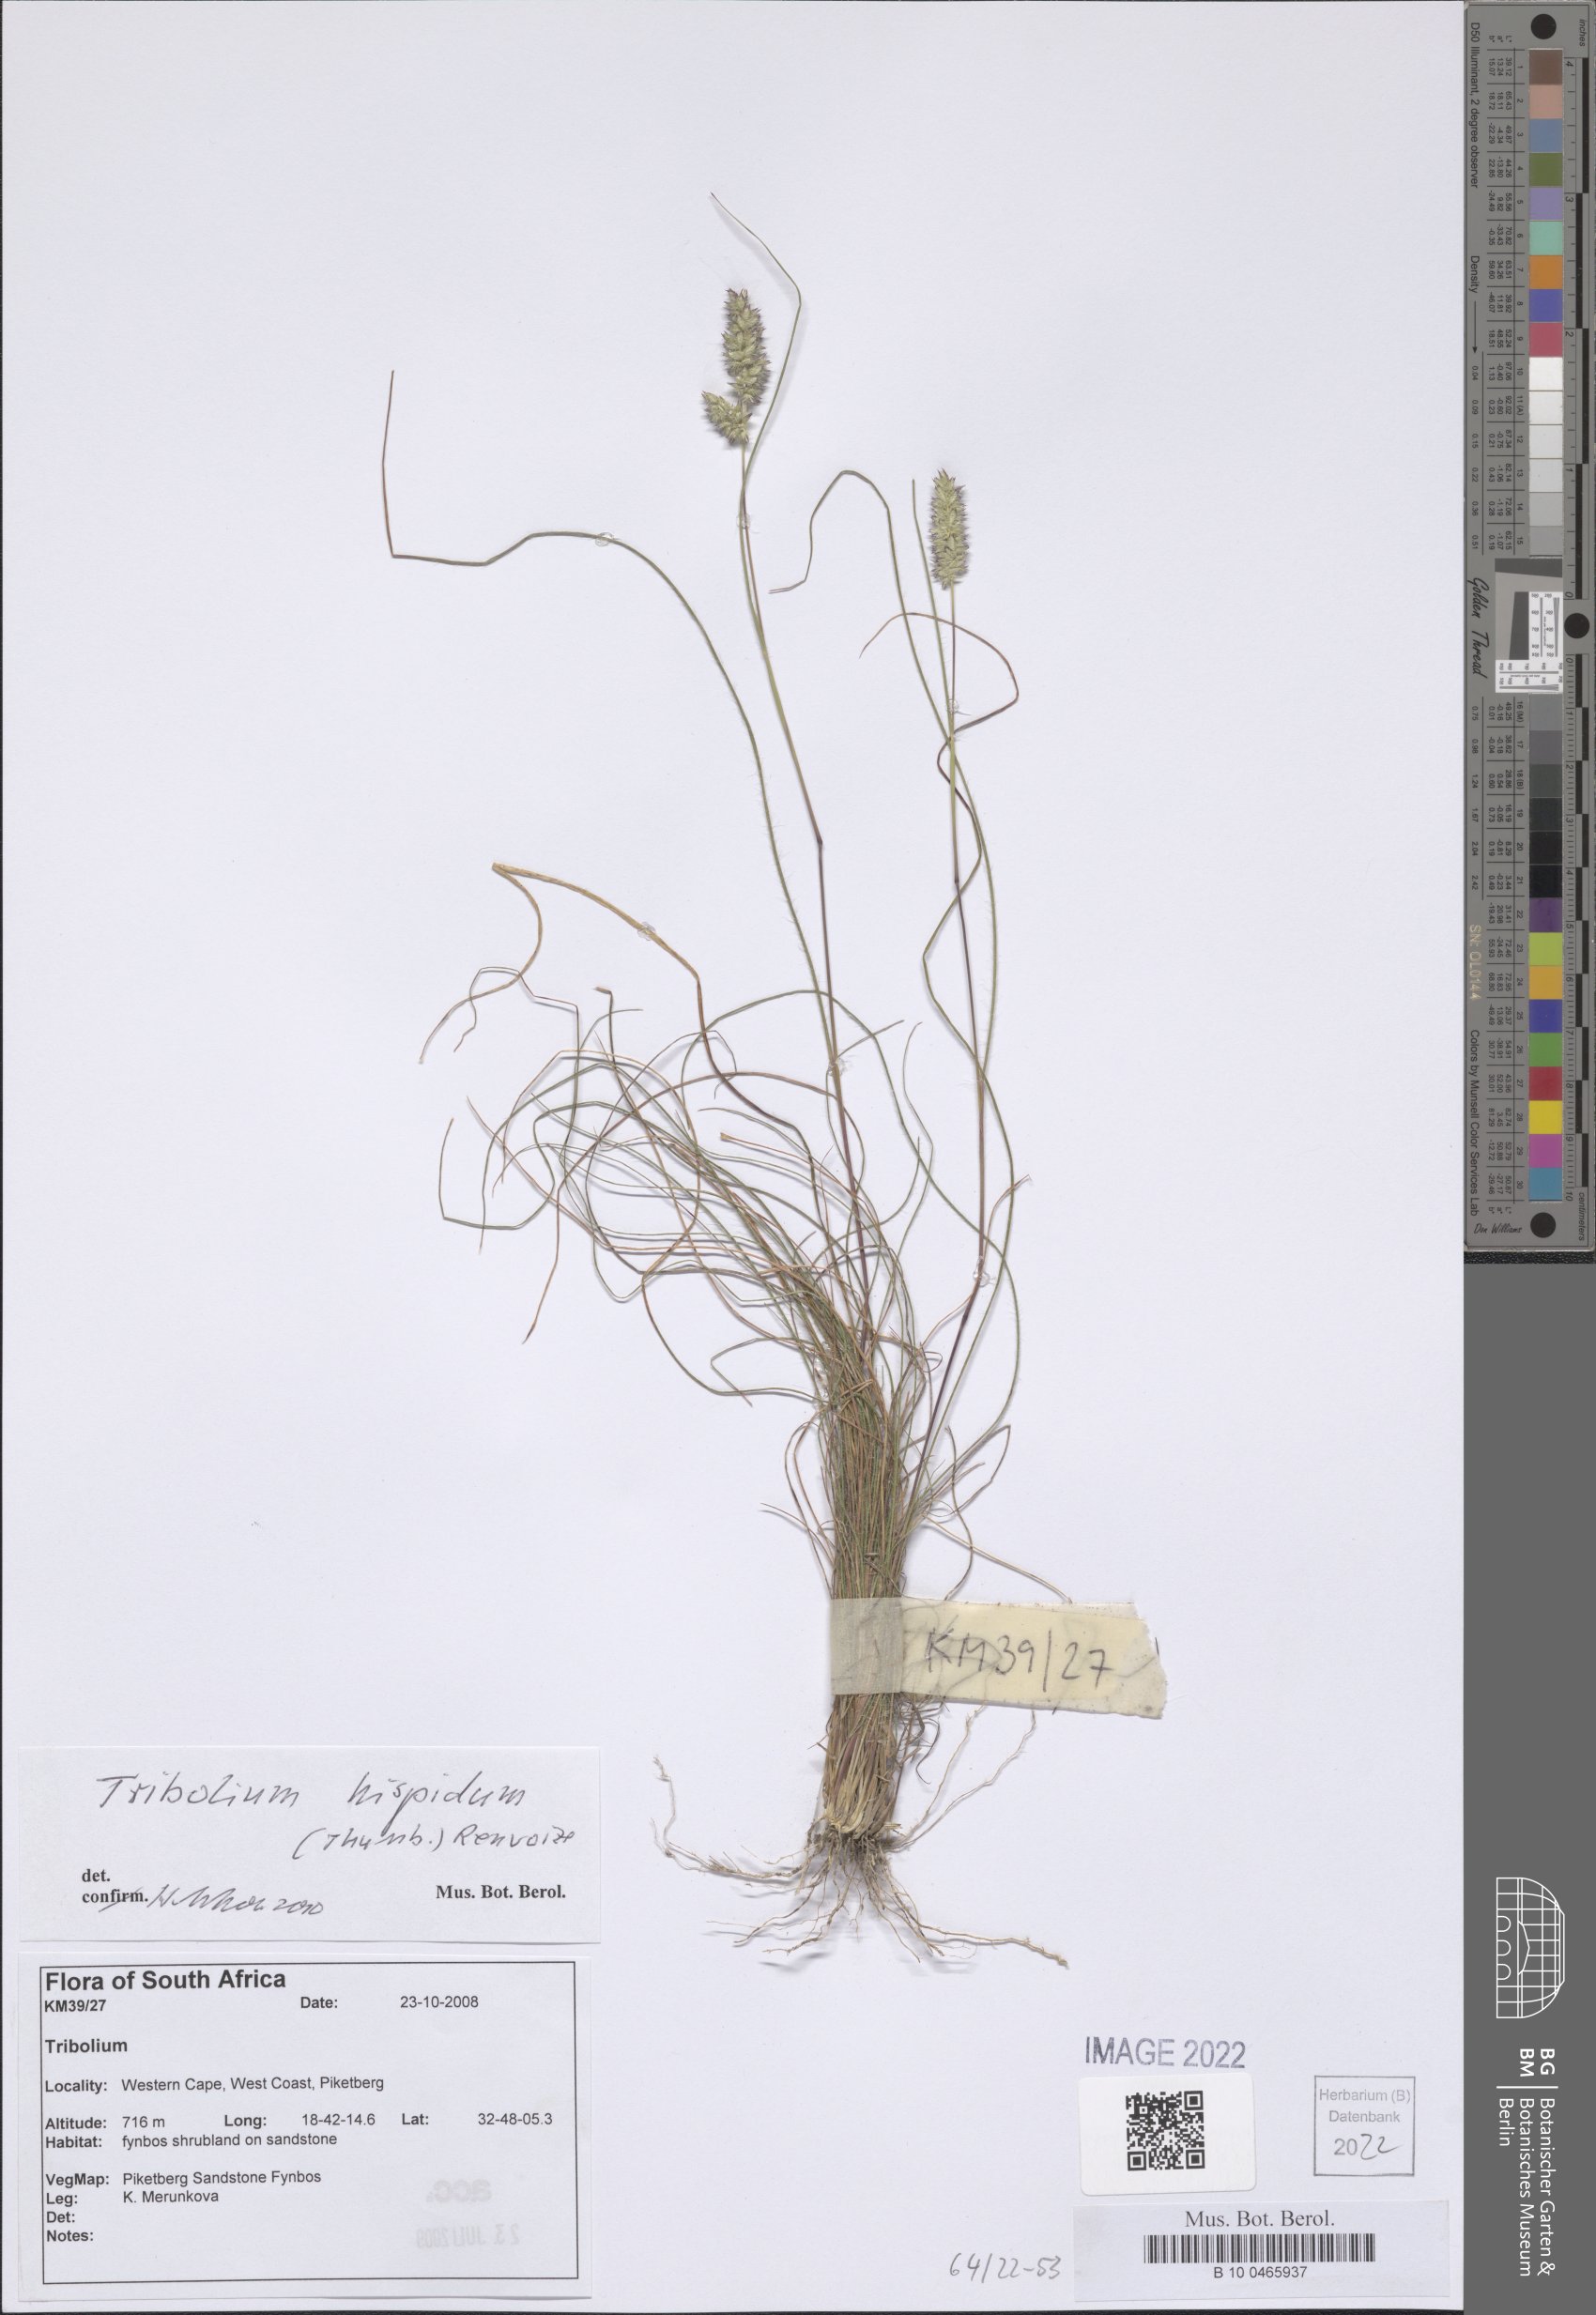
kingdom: Plantae
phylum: Tracheophyta
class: Liliopsida
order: Poales
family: Poaceae
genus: Tribolium
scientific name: Tribolium hispidum
